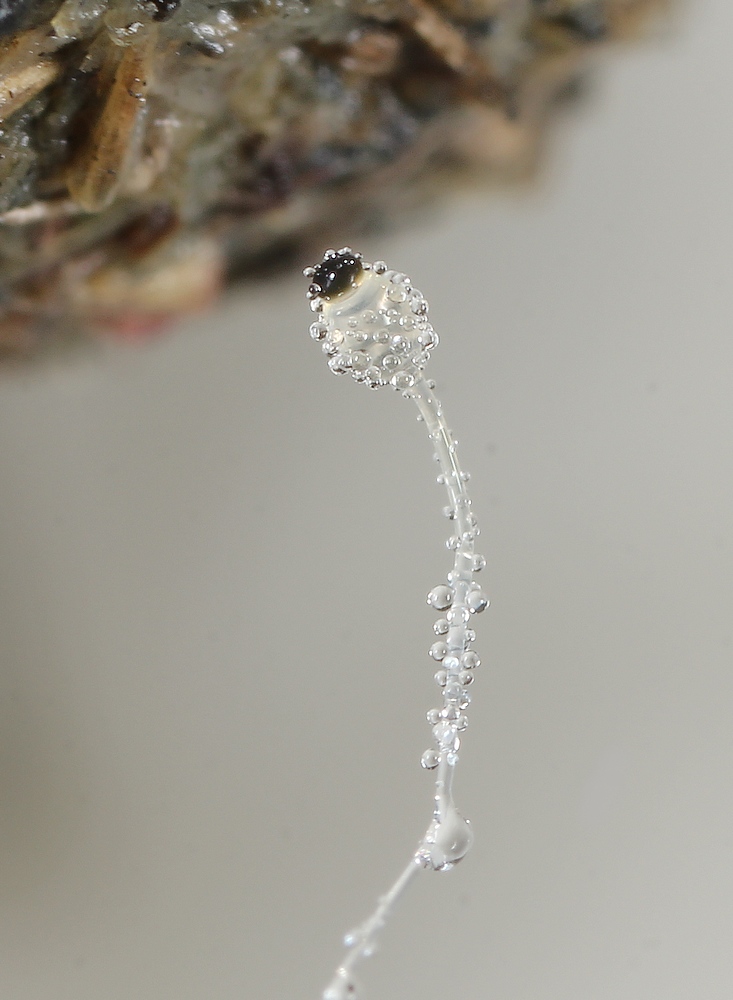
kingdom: Fungi
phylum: Mucoromycota
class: Mucoromycetes
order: Mucorales
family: Pilobolaceae
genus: Pilobolus
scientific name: Pilobolus
